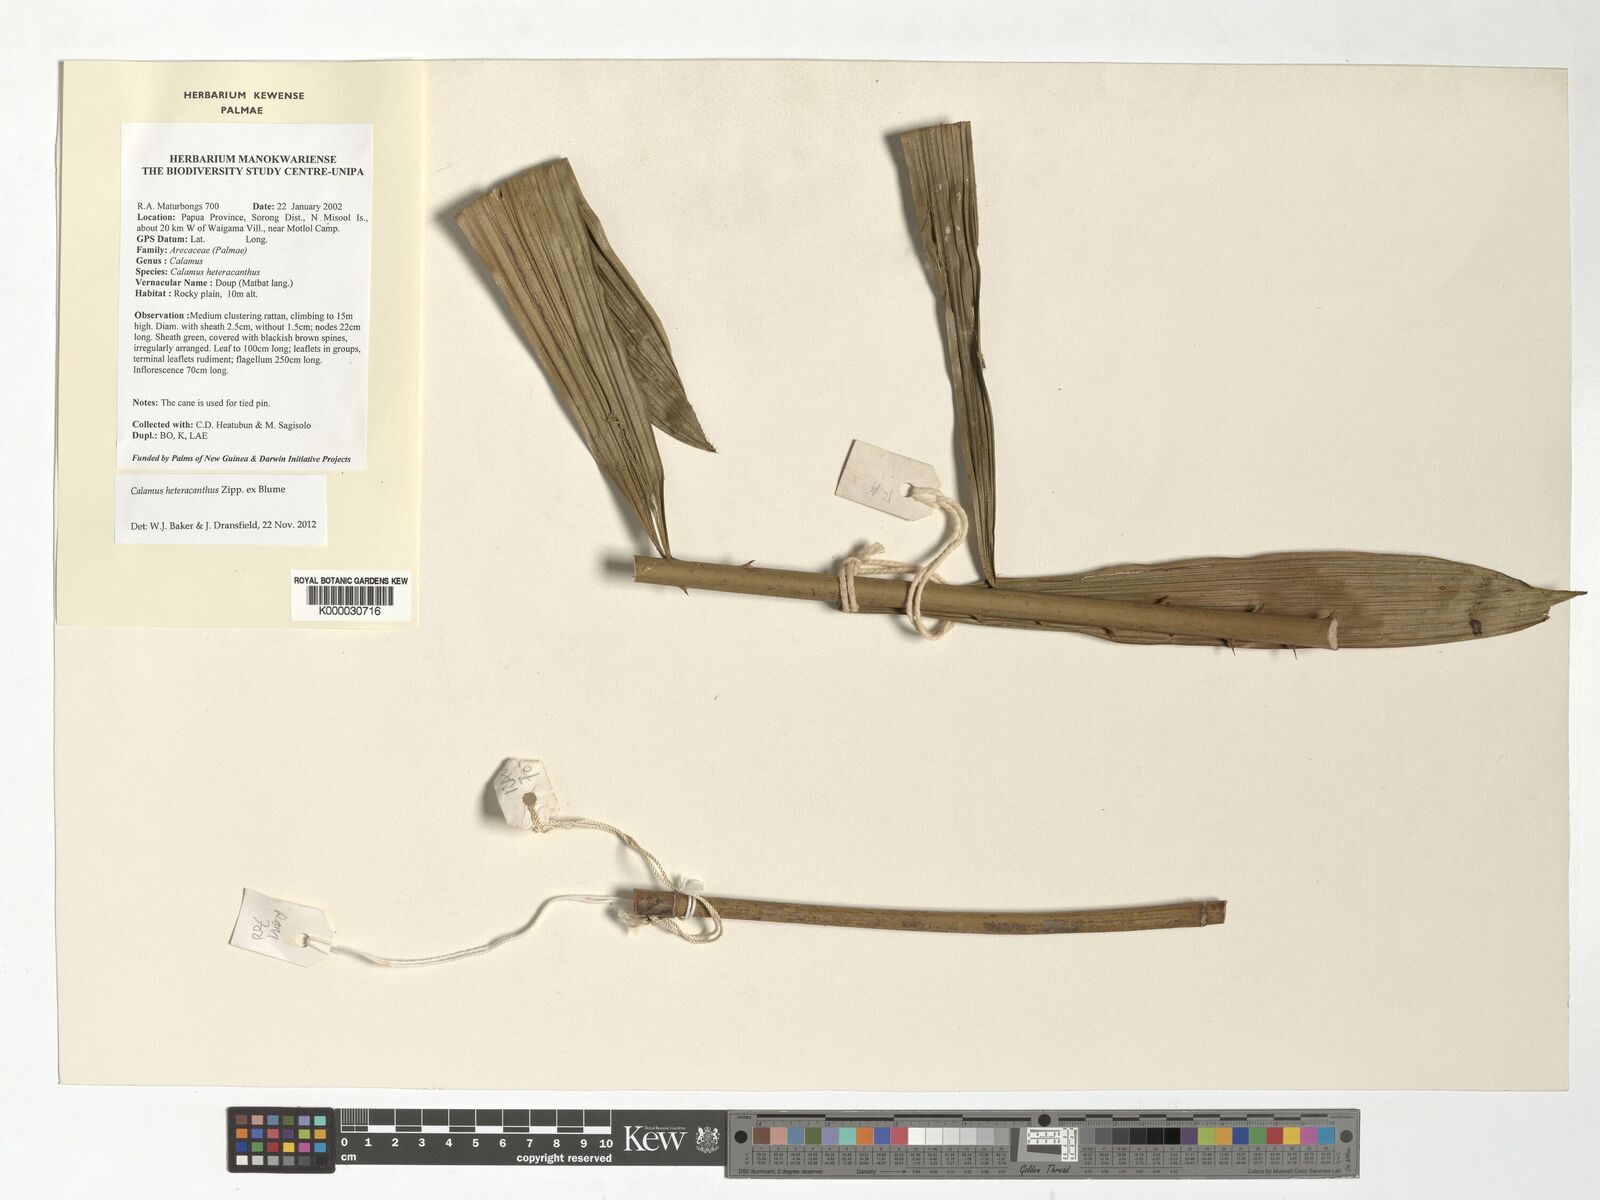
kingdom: Plantae
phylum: Tracheophyta
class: Liliopsida
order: Arecales
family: Arecaceae
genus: Calamus
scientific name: Calamus heteracanthus
